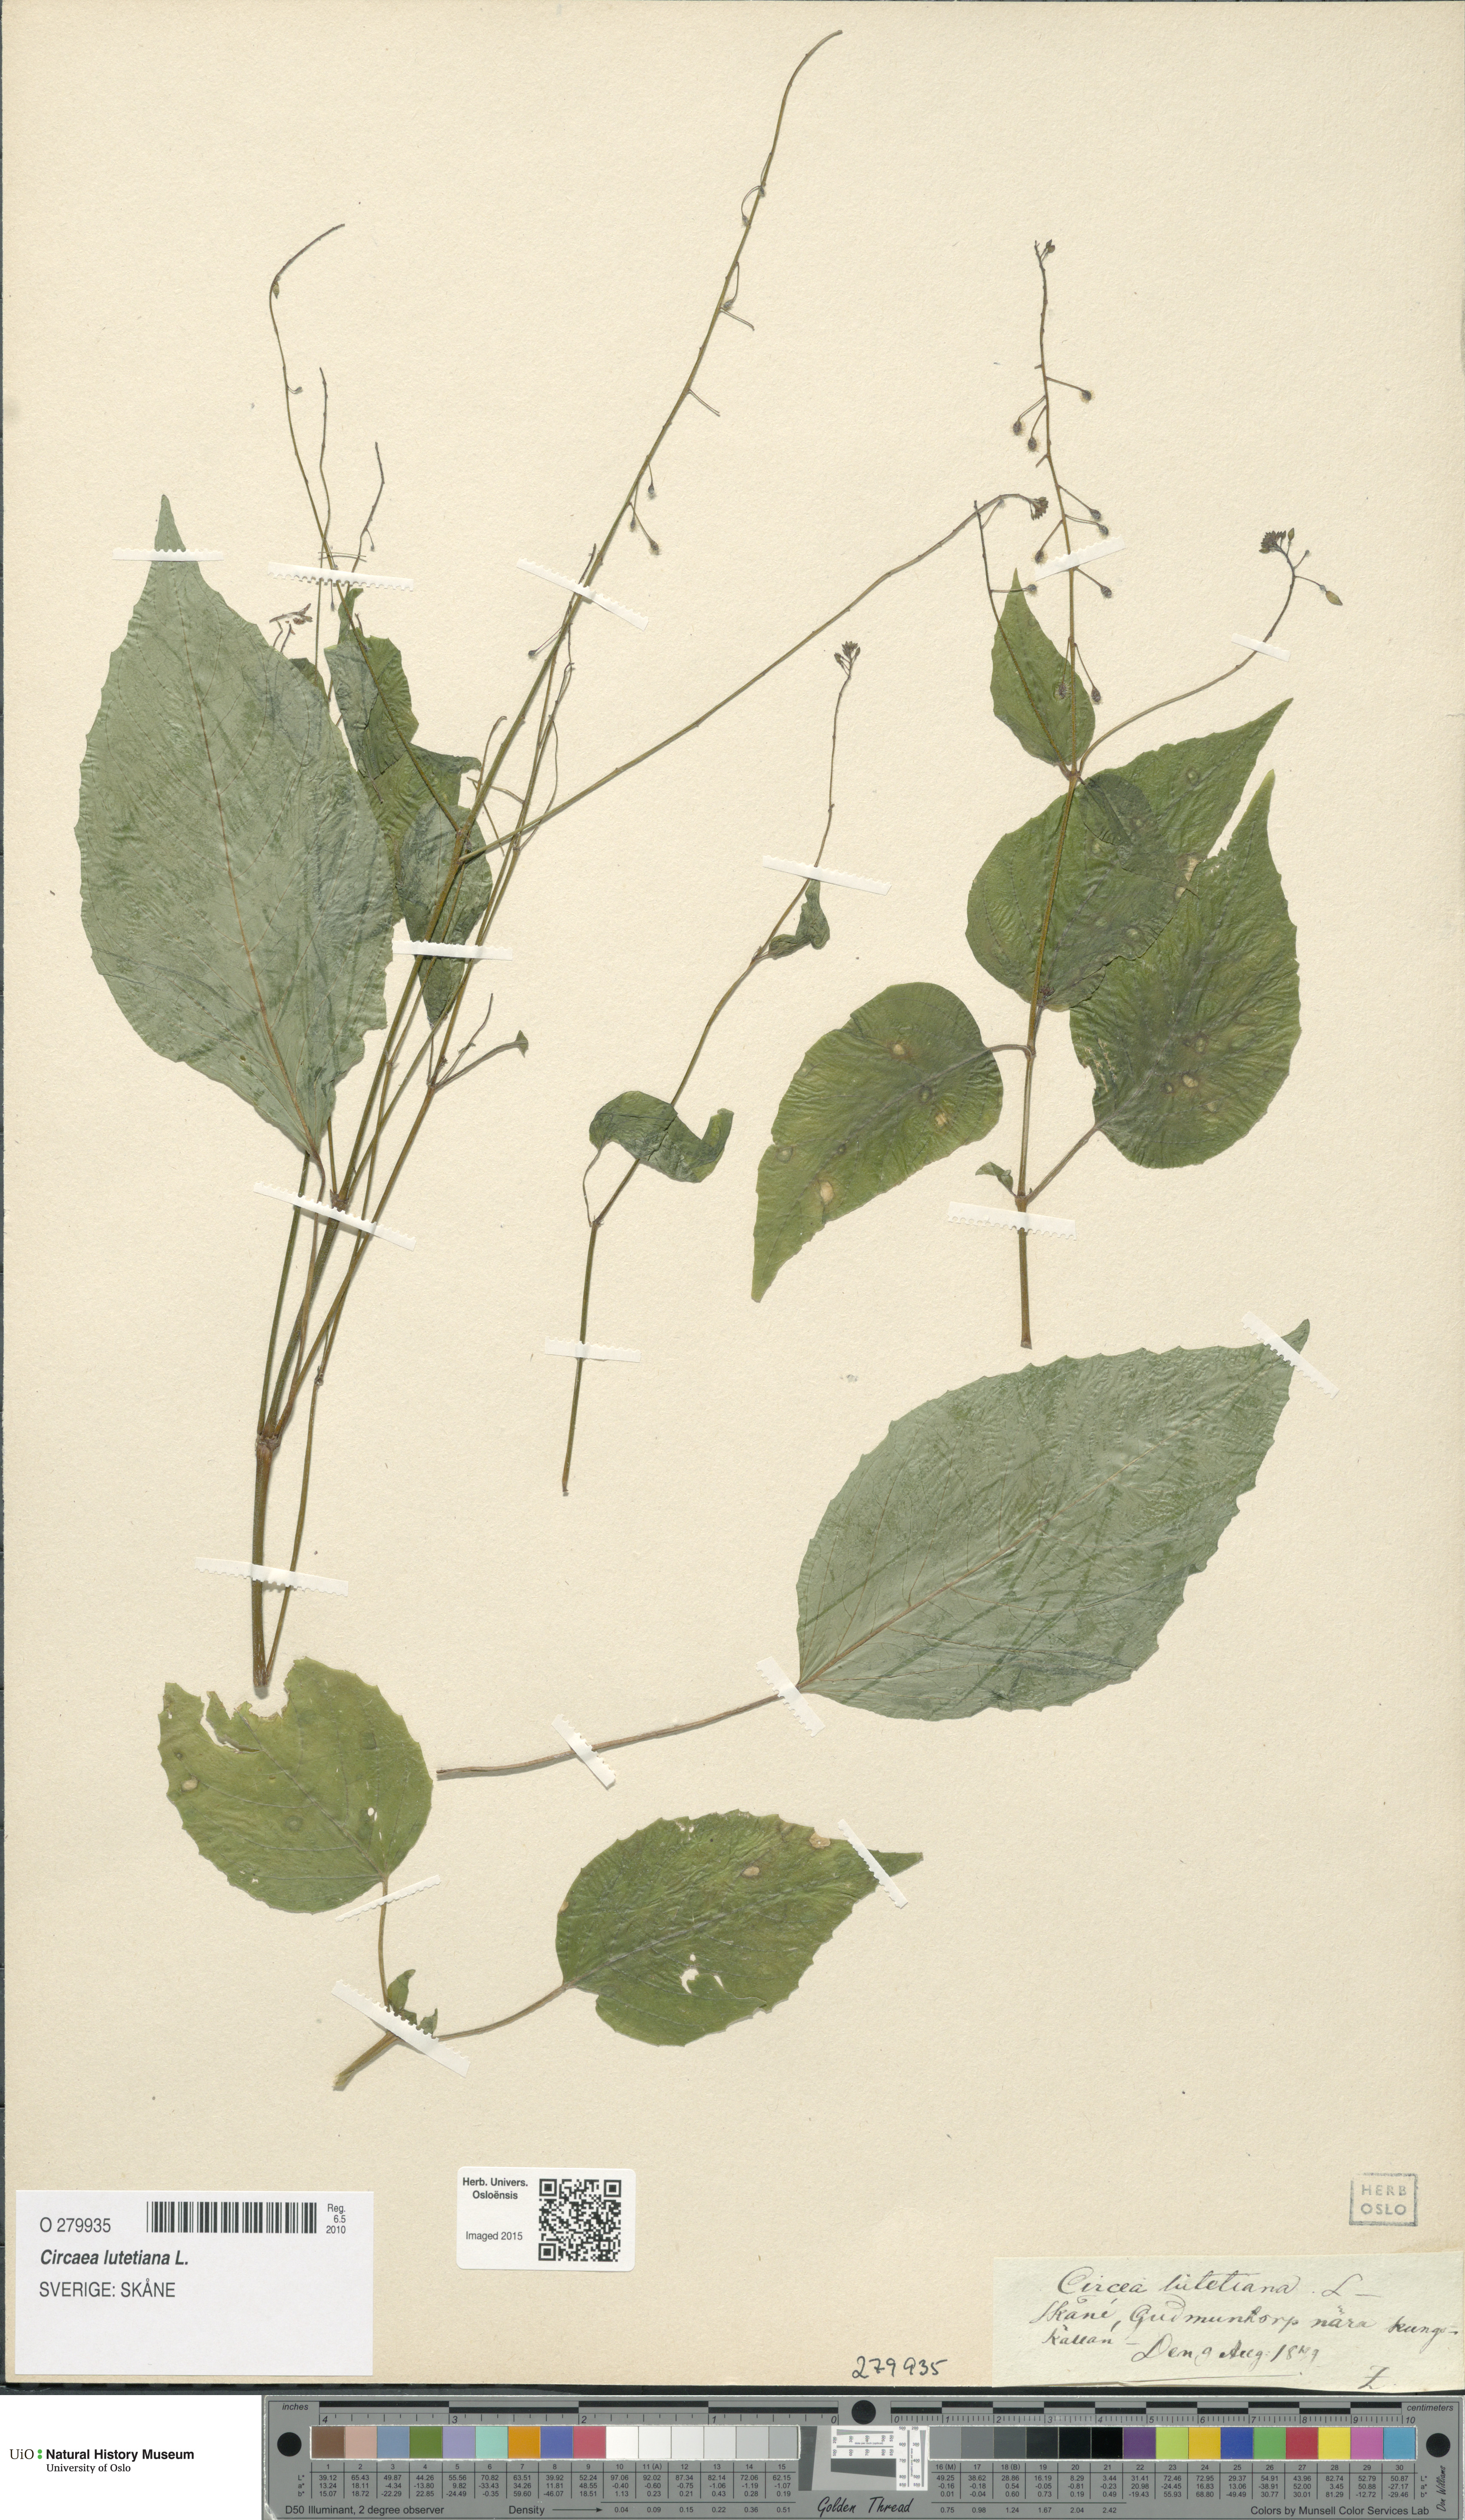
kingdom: Plantae
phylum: Tracheophyta
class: Magnoliopsida
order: Myrtales
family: Onagraceae
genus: Circaea
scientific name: Circaea lutetiana
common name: Enchanter's-nightshade
